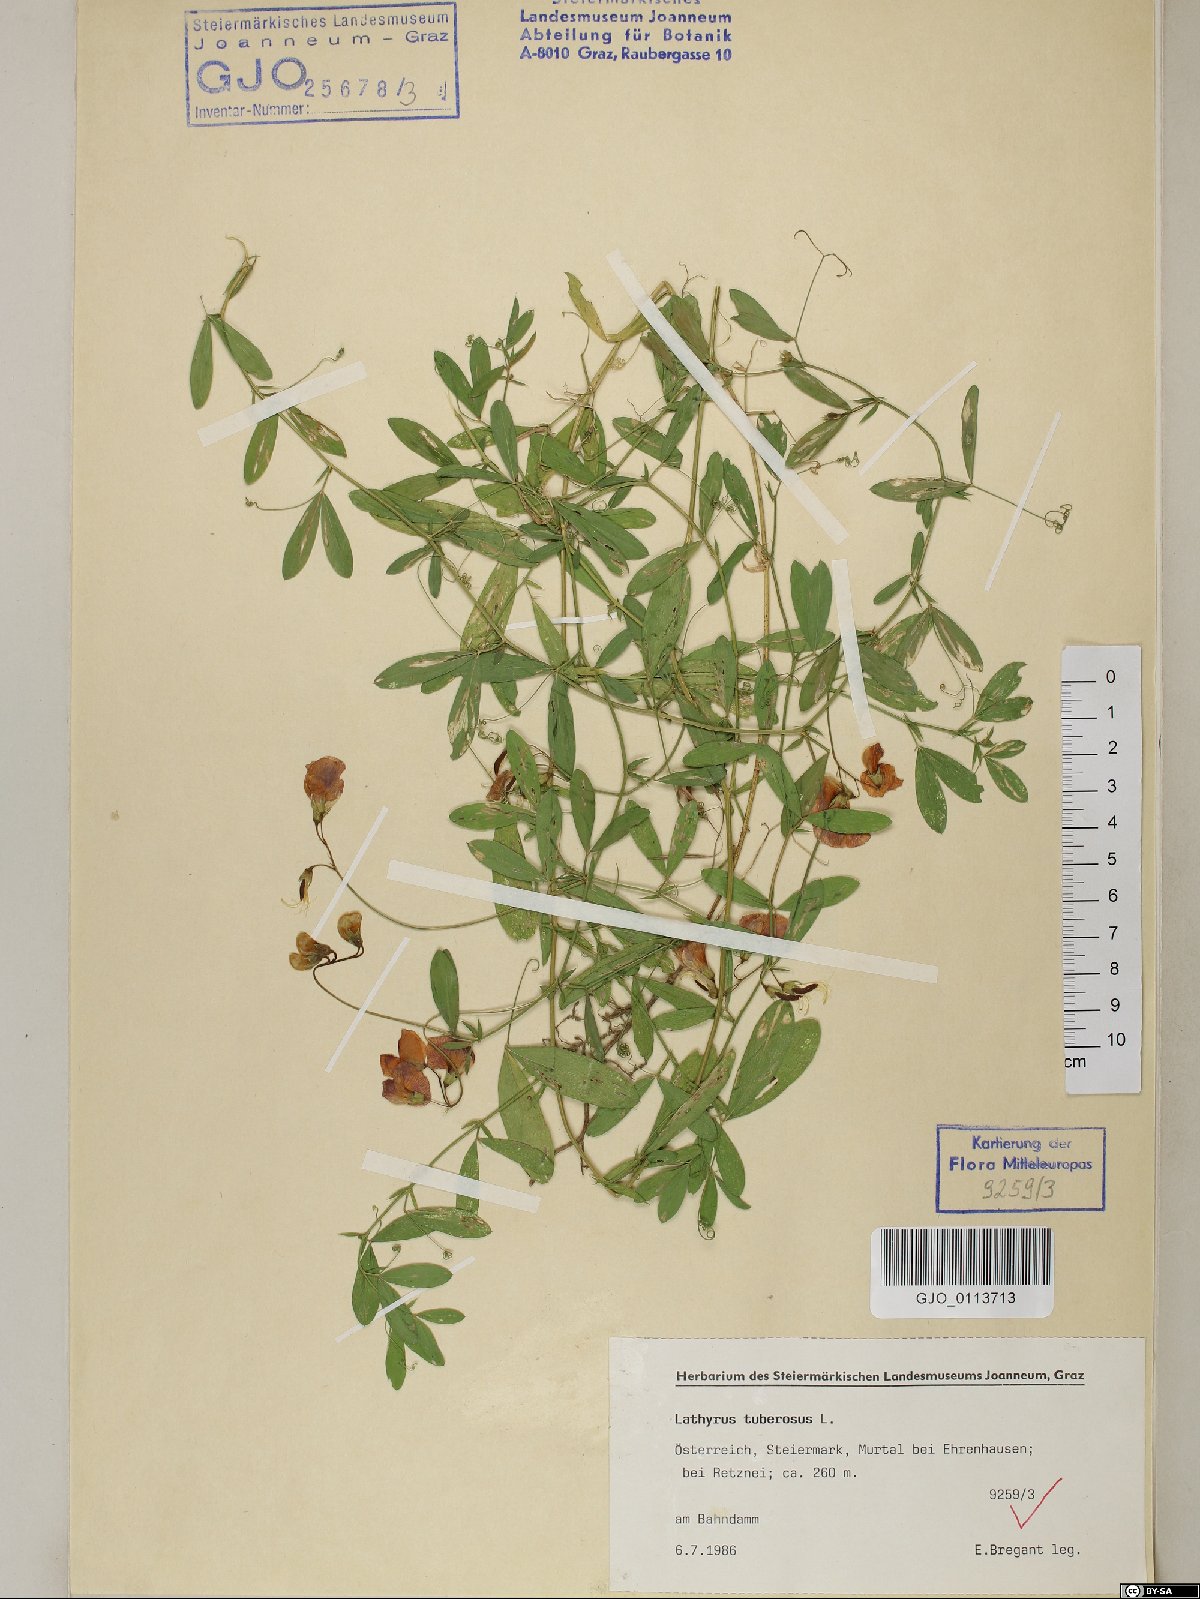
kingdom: Plantae
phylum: Tracheophyta
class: Magnoliopsida
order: Fabales
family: Fabaceae
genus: Lathyrus
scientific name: Lathyrus tuberosus
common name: Tuberous pea
